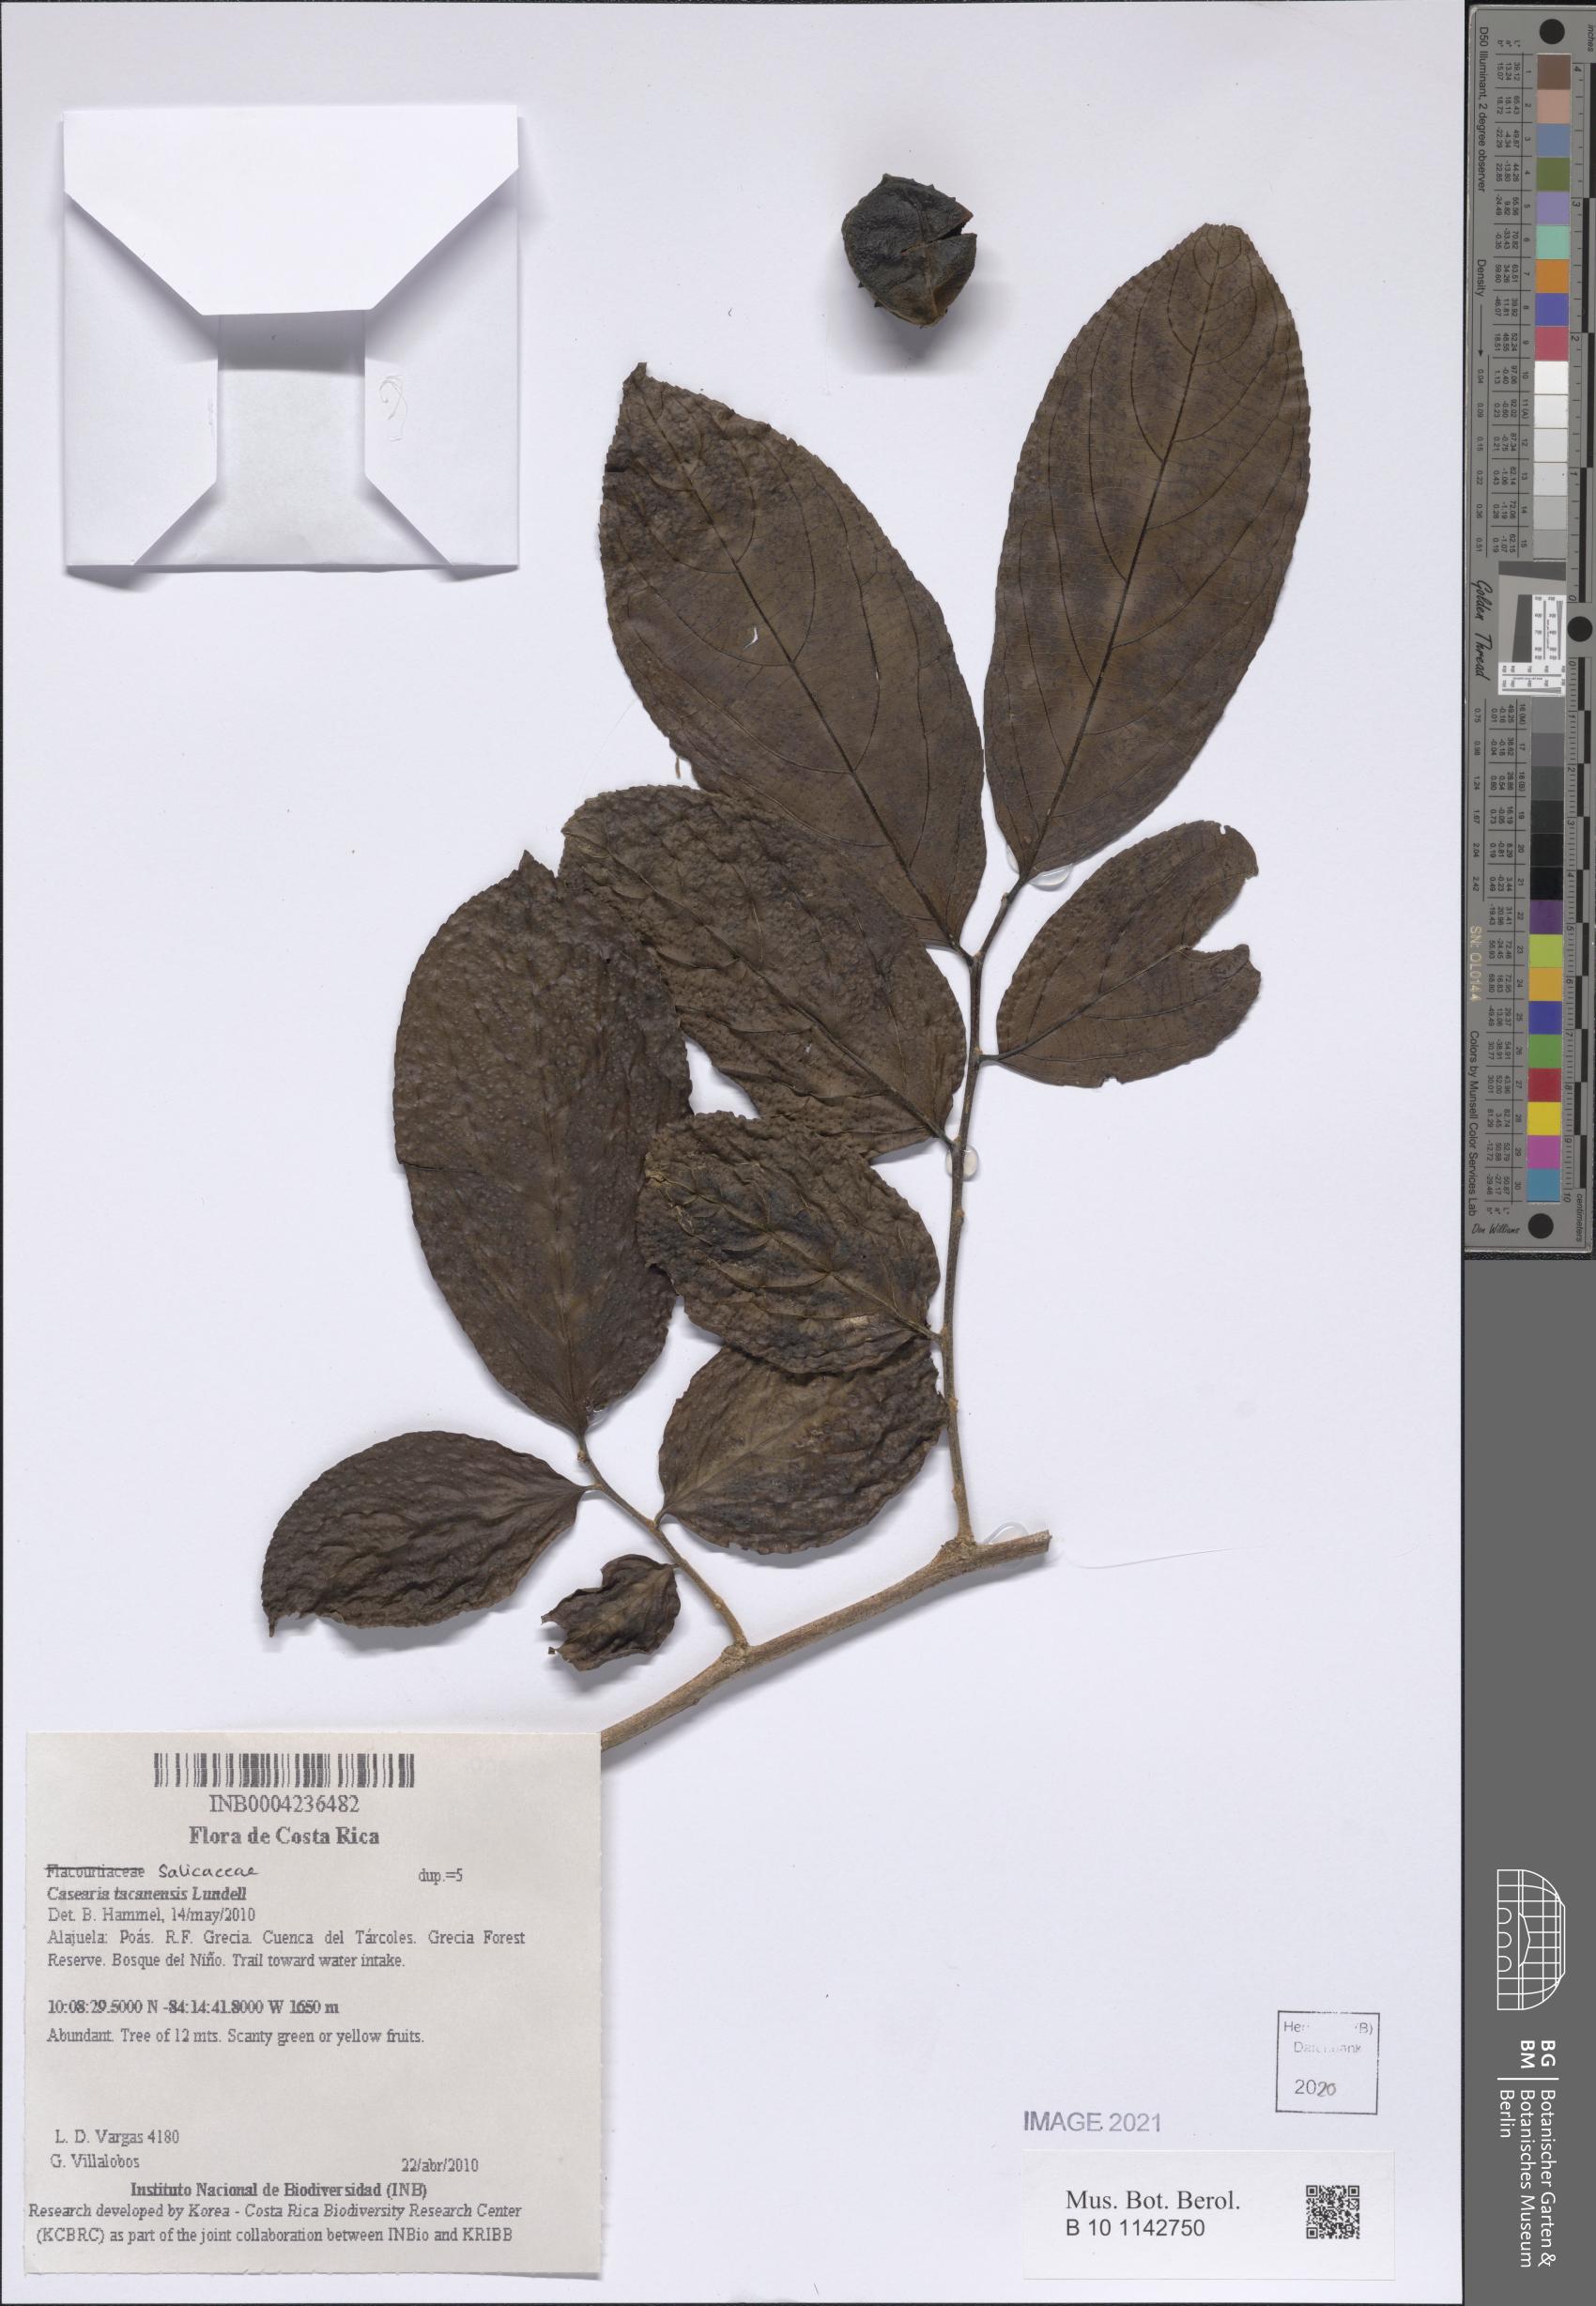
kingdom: Plantae
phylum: Tracheophyta
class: Magnoliopsida
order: Malpighiales
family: Salicaceae
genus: Casearia
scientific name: Casearia tacanensis
